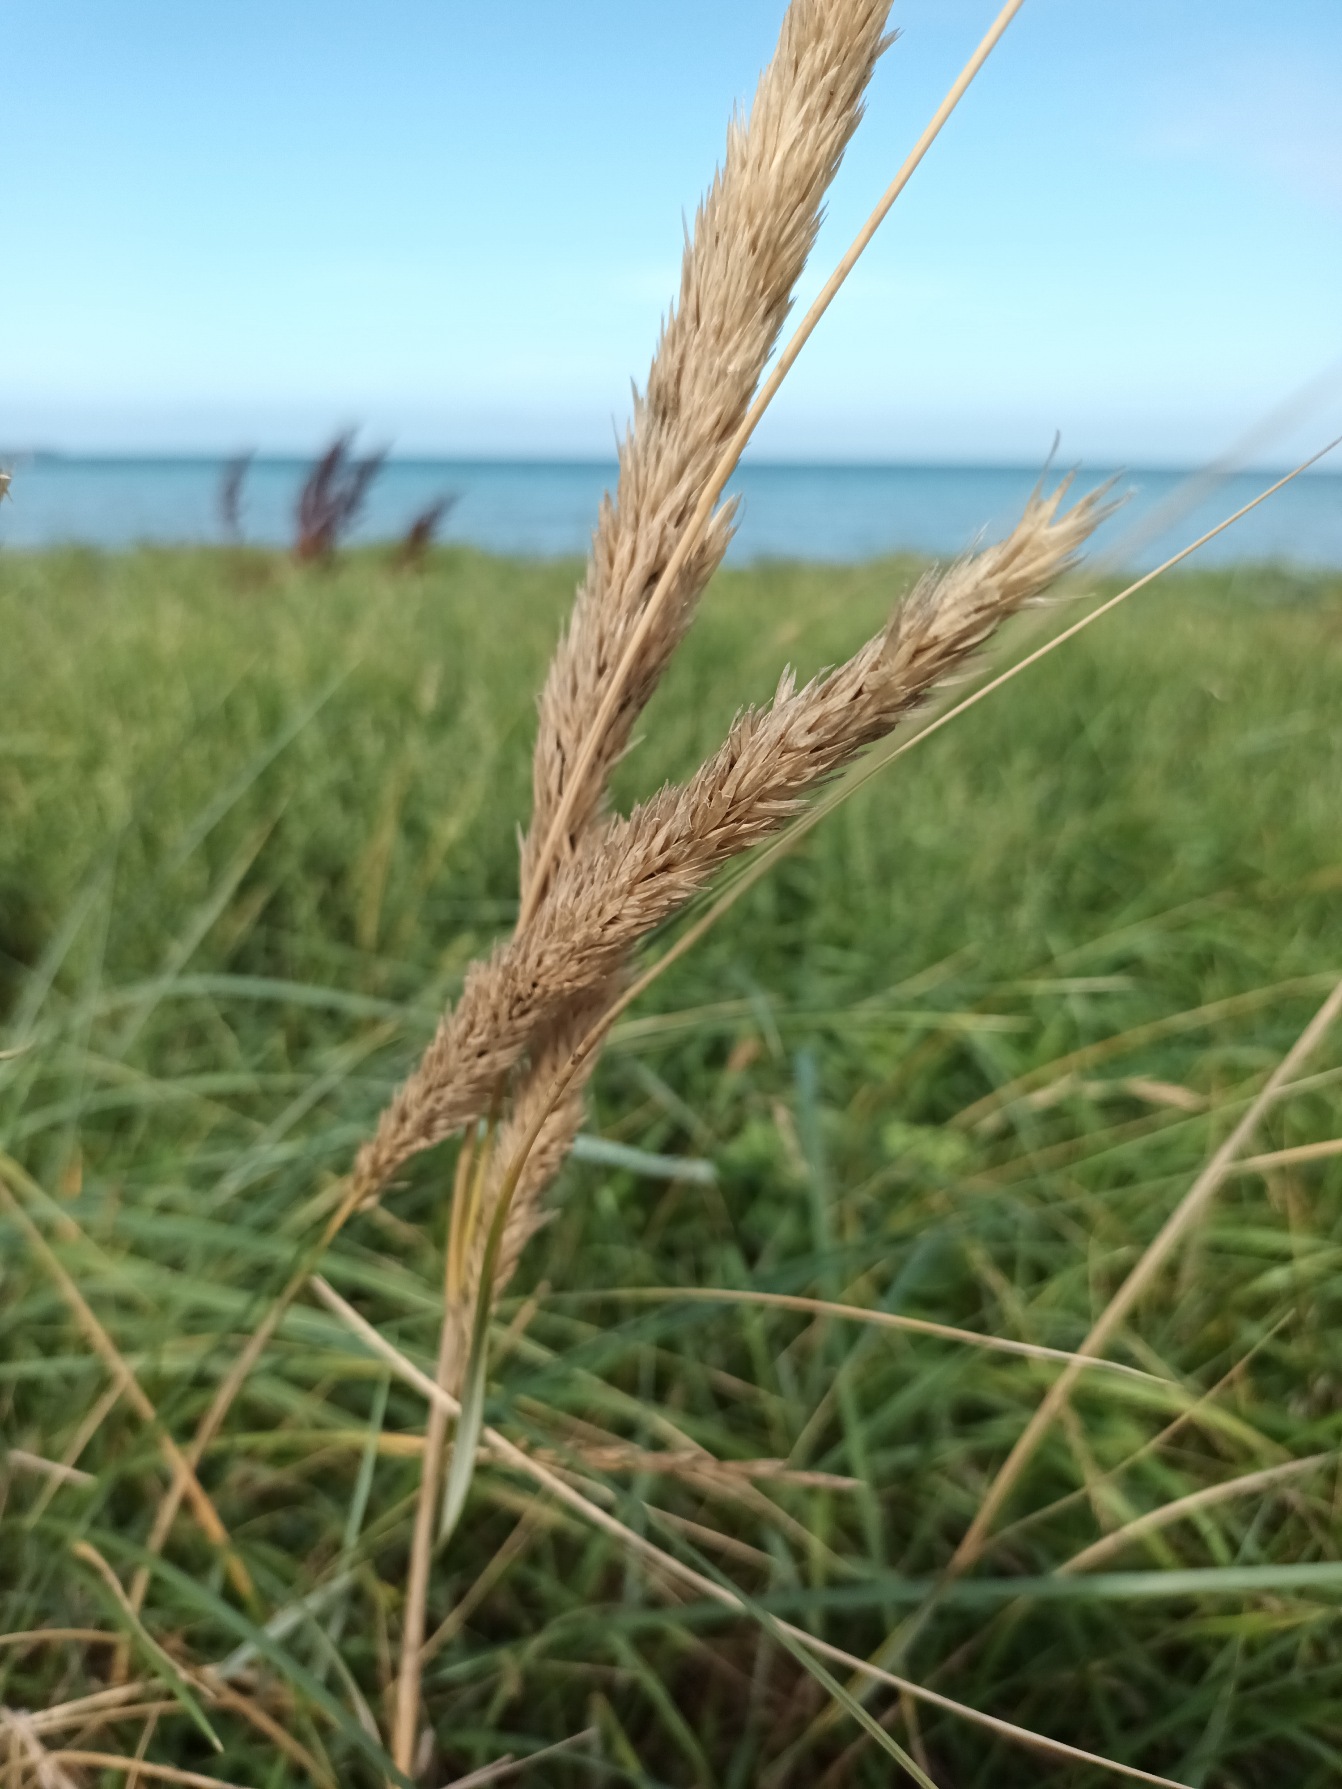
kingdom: Plantae
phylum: Tracheophyta
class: Liliopsida
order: Poales
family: Poaceae
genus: Calamagrostis
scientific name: Calamagrostis arenaria
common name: Sand-hjælme
